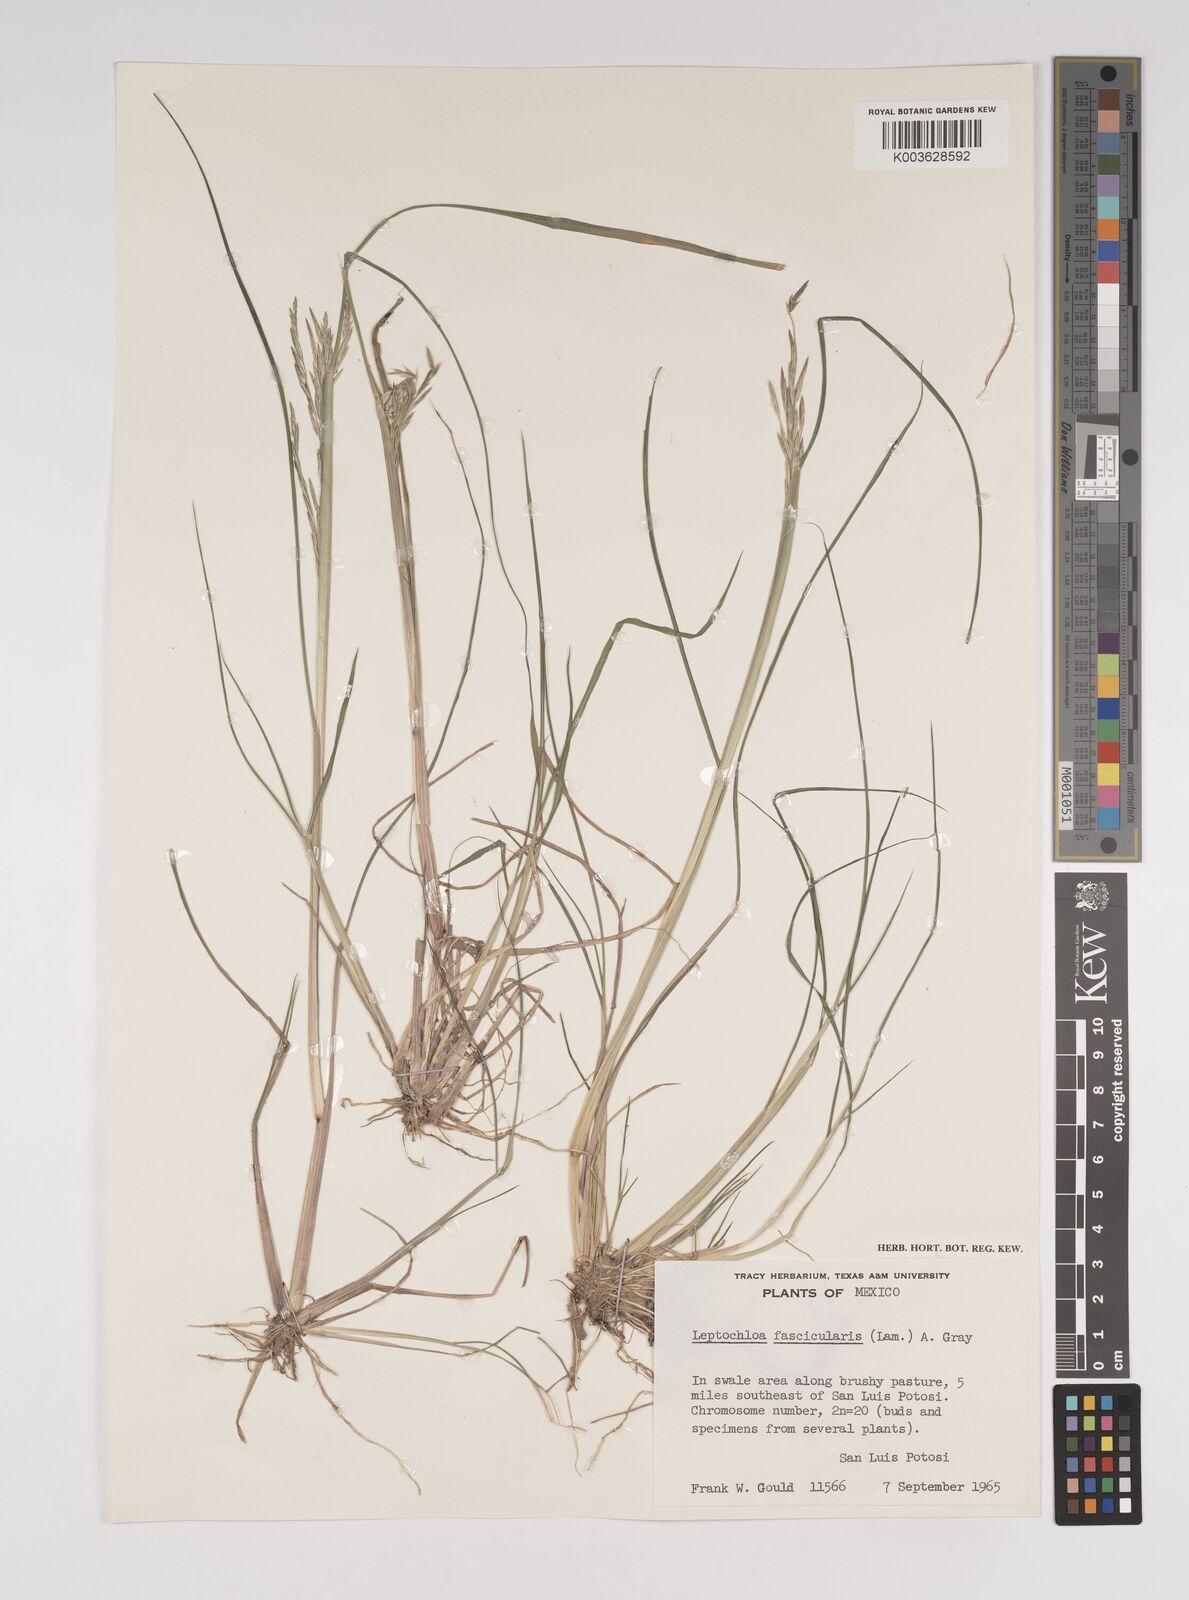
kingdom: Plantae
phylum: Tracheophyta
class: Liliopsida
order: Poales
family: Poaceae
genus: Diplachne
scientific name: Diplachne fusca
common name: Brown beetle grass
